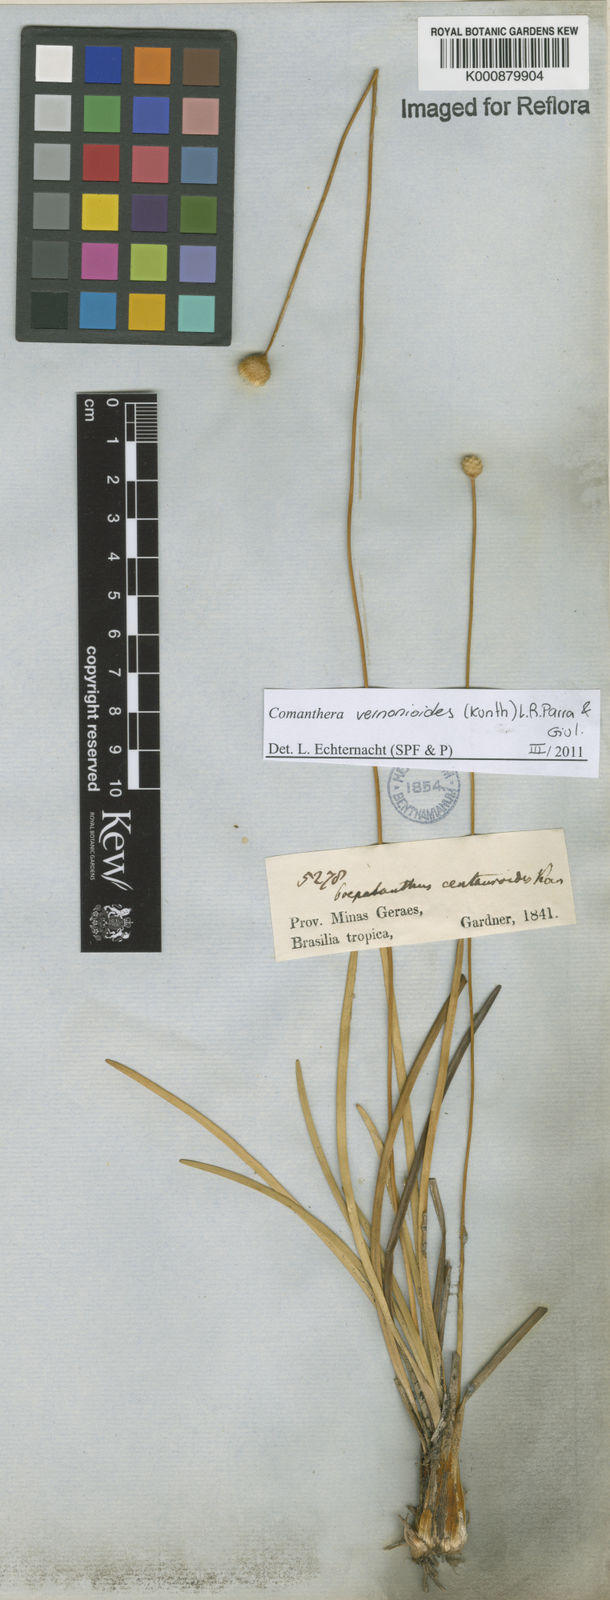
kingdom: Plantae
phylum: Tracheophyta
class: Liliopsida
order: Poales
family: Eriocaulaceae
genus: Comanthera
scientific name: Comanthera centauroides
